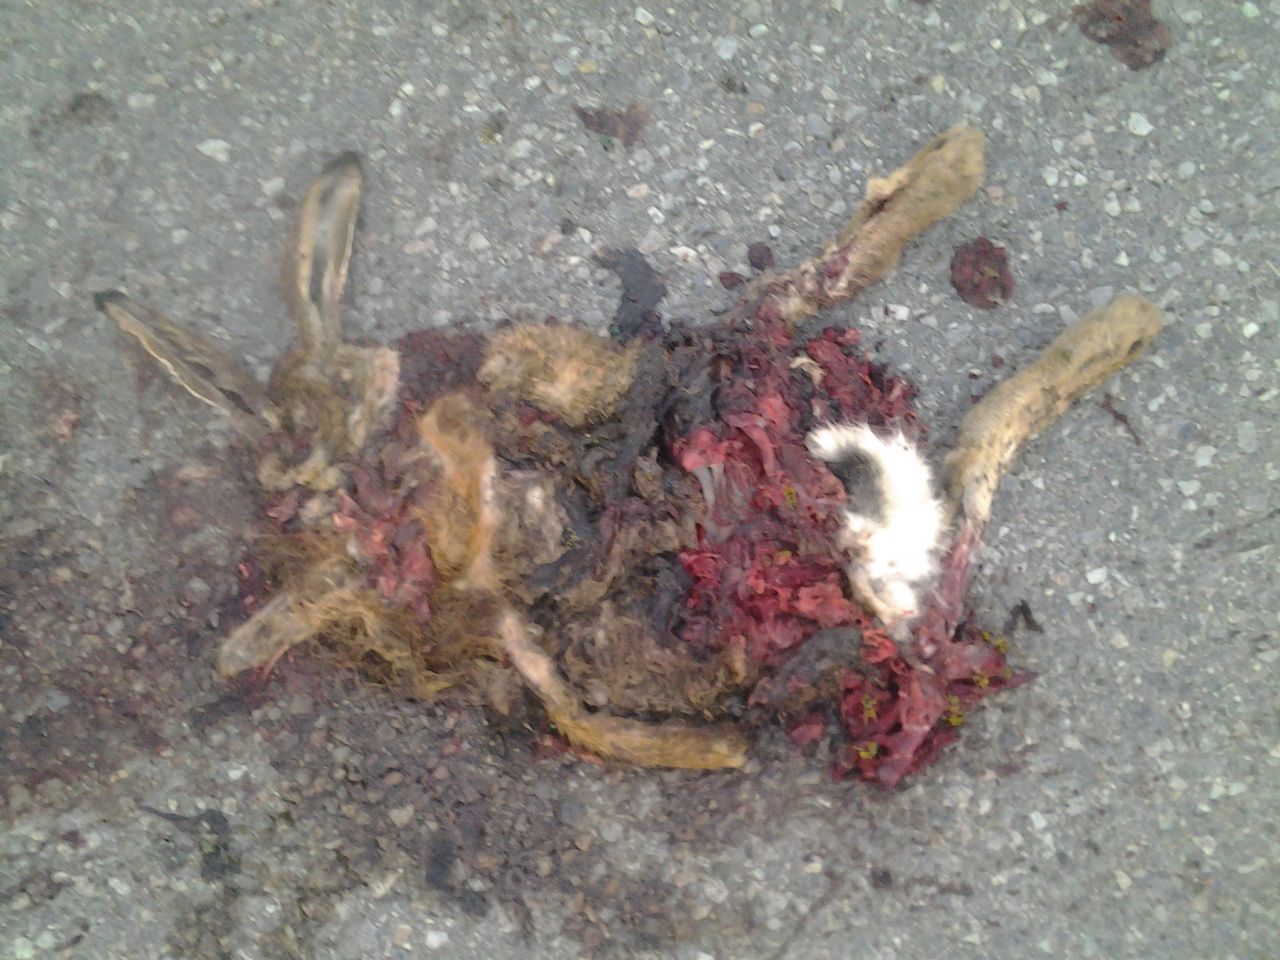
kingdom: Animalia
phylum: Chordata
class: Mammalia
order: Lagomorpha
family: Leporidae
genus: Lepus
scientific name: Lepus europaeus
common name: European hare
